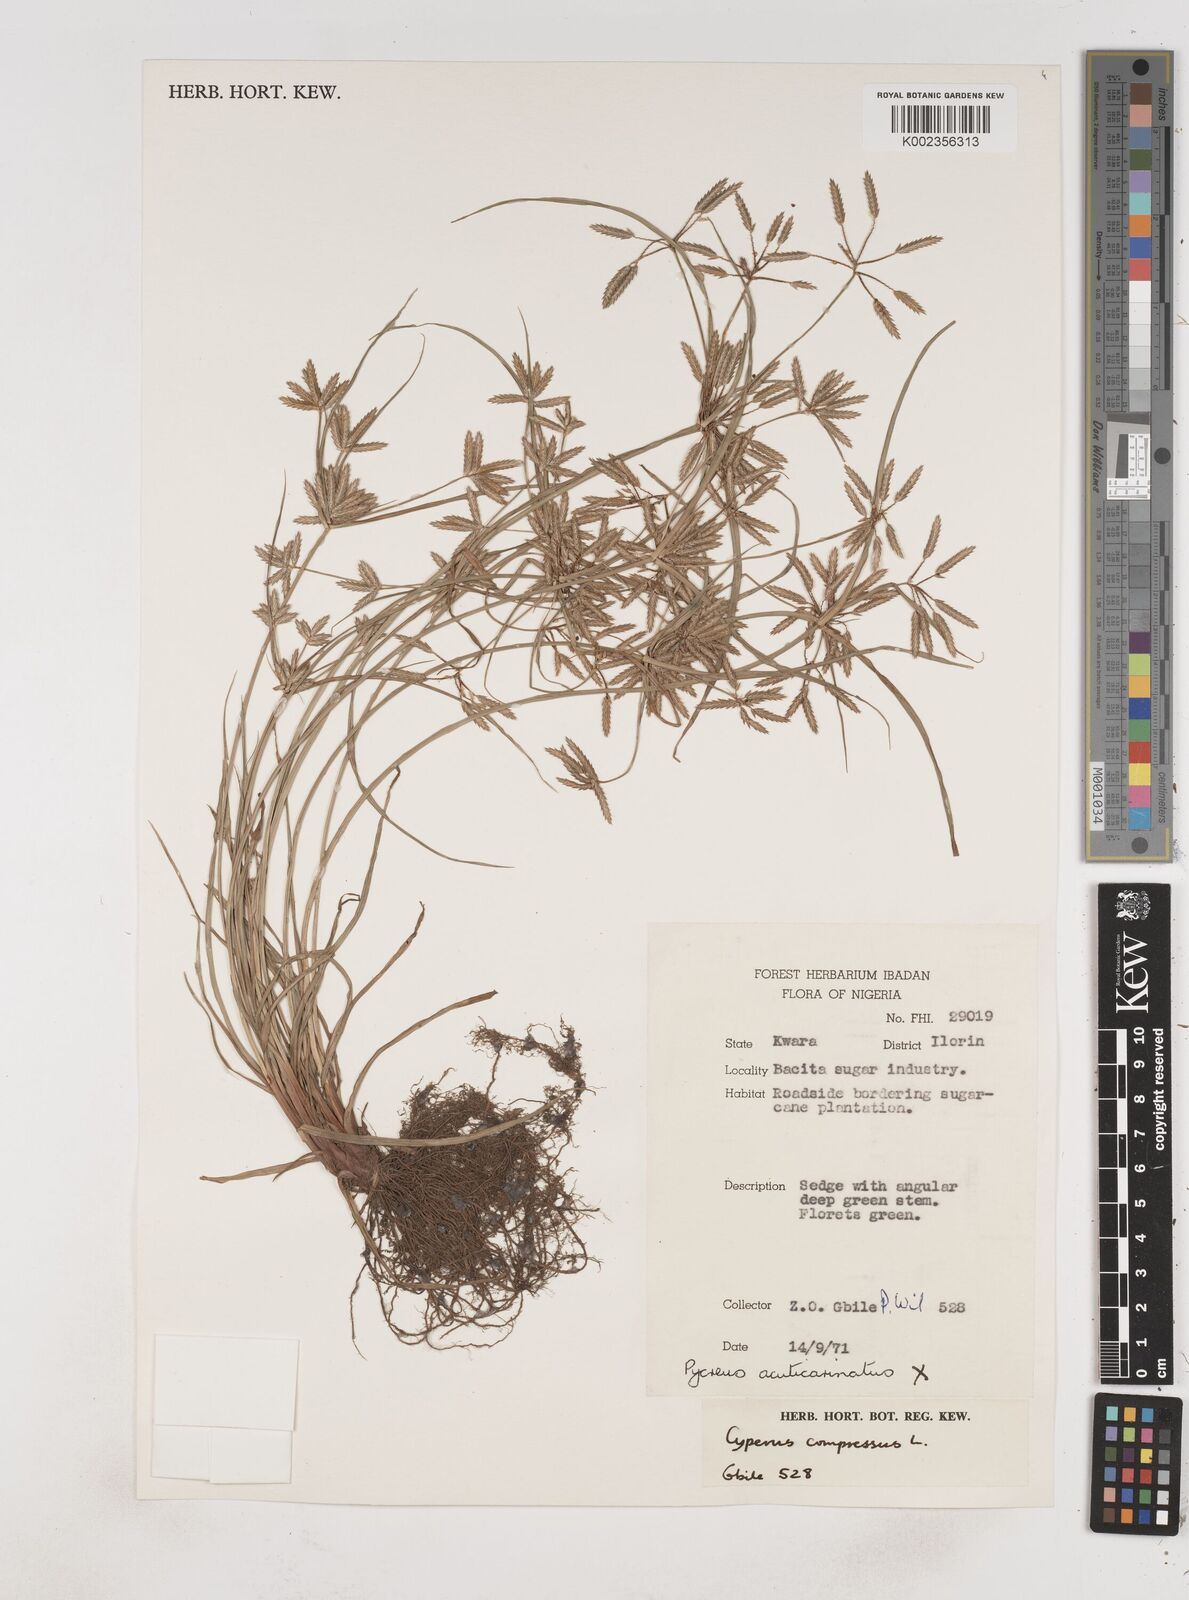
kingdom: Plantae
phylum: Tracheophyta
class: Liliopsida
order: Poales
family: Cyperaceae
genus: Cyperus
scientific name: Cyperus compressus
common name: Poorland flatsedge
